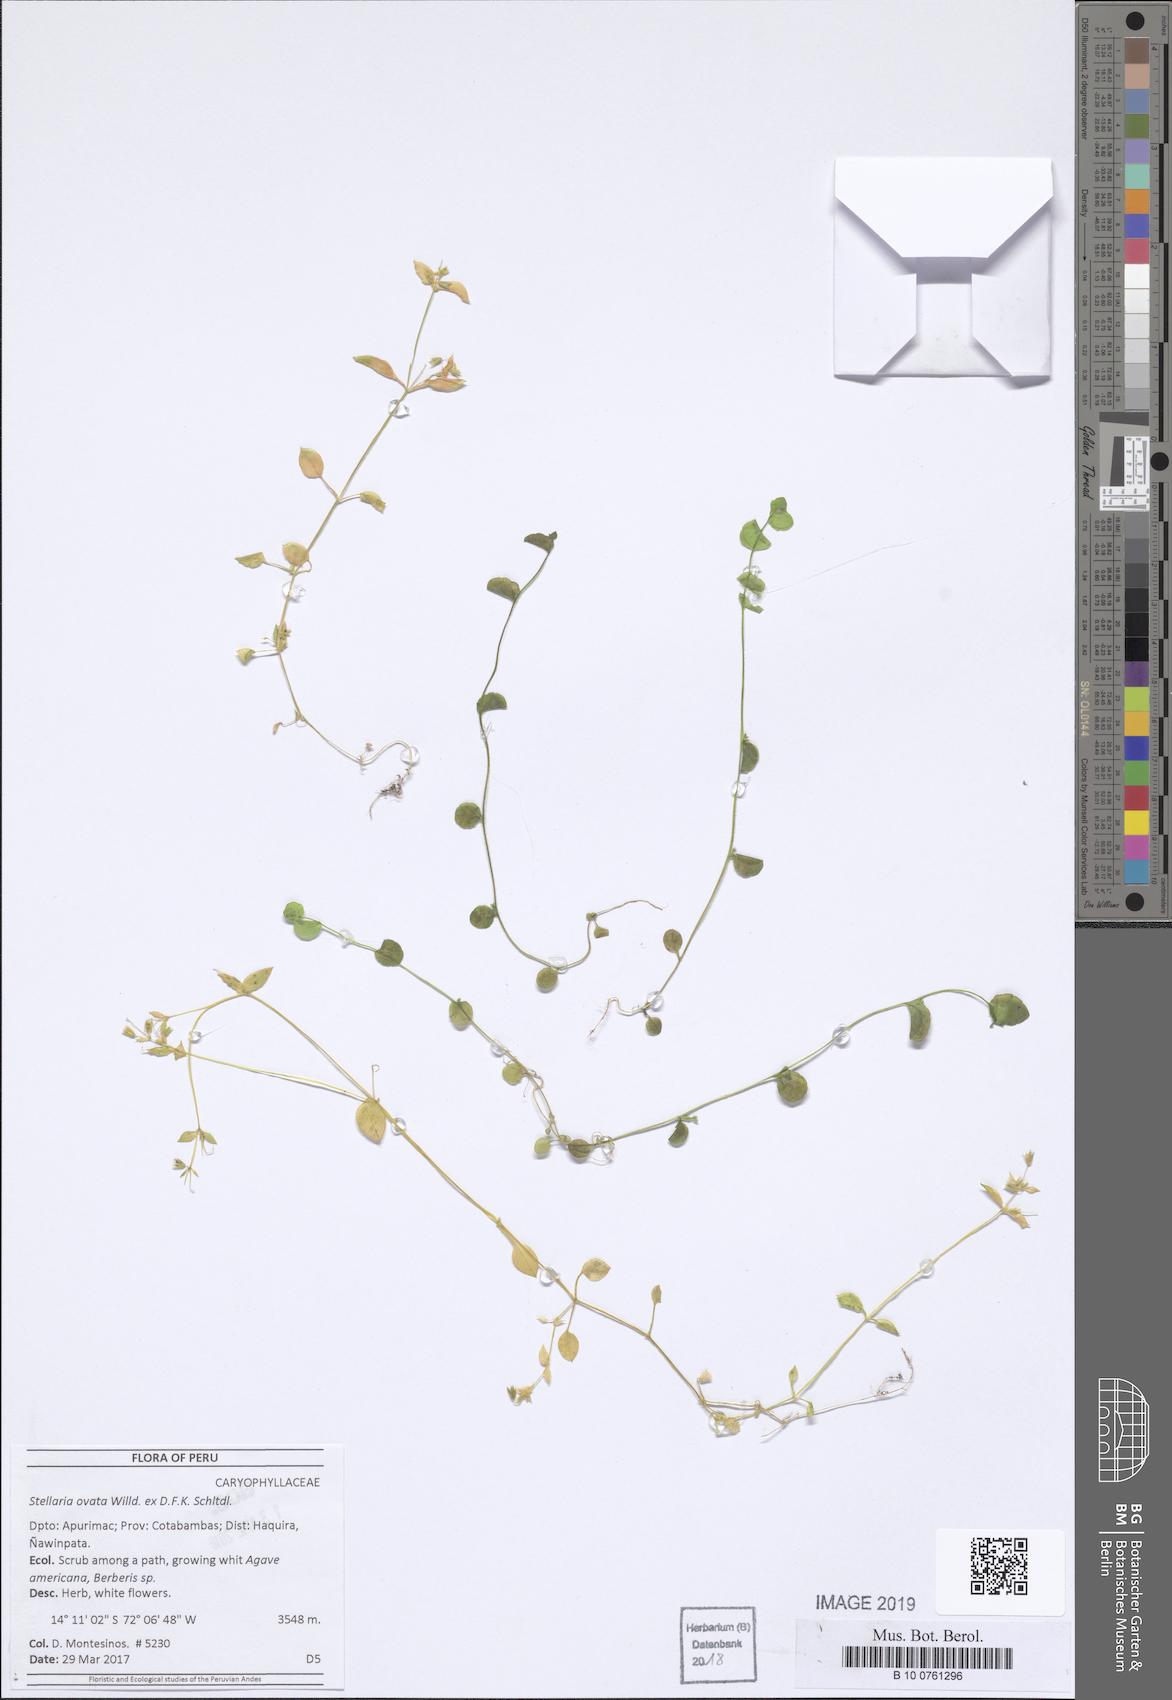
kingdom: Plantae
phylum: Tracheophyta
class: Magnoliopsida
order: Caryophyllales
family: Caryophyllaceae
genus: Stellaria
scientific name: Stellaria ovata
